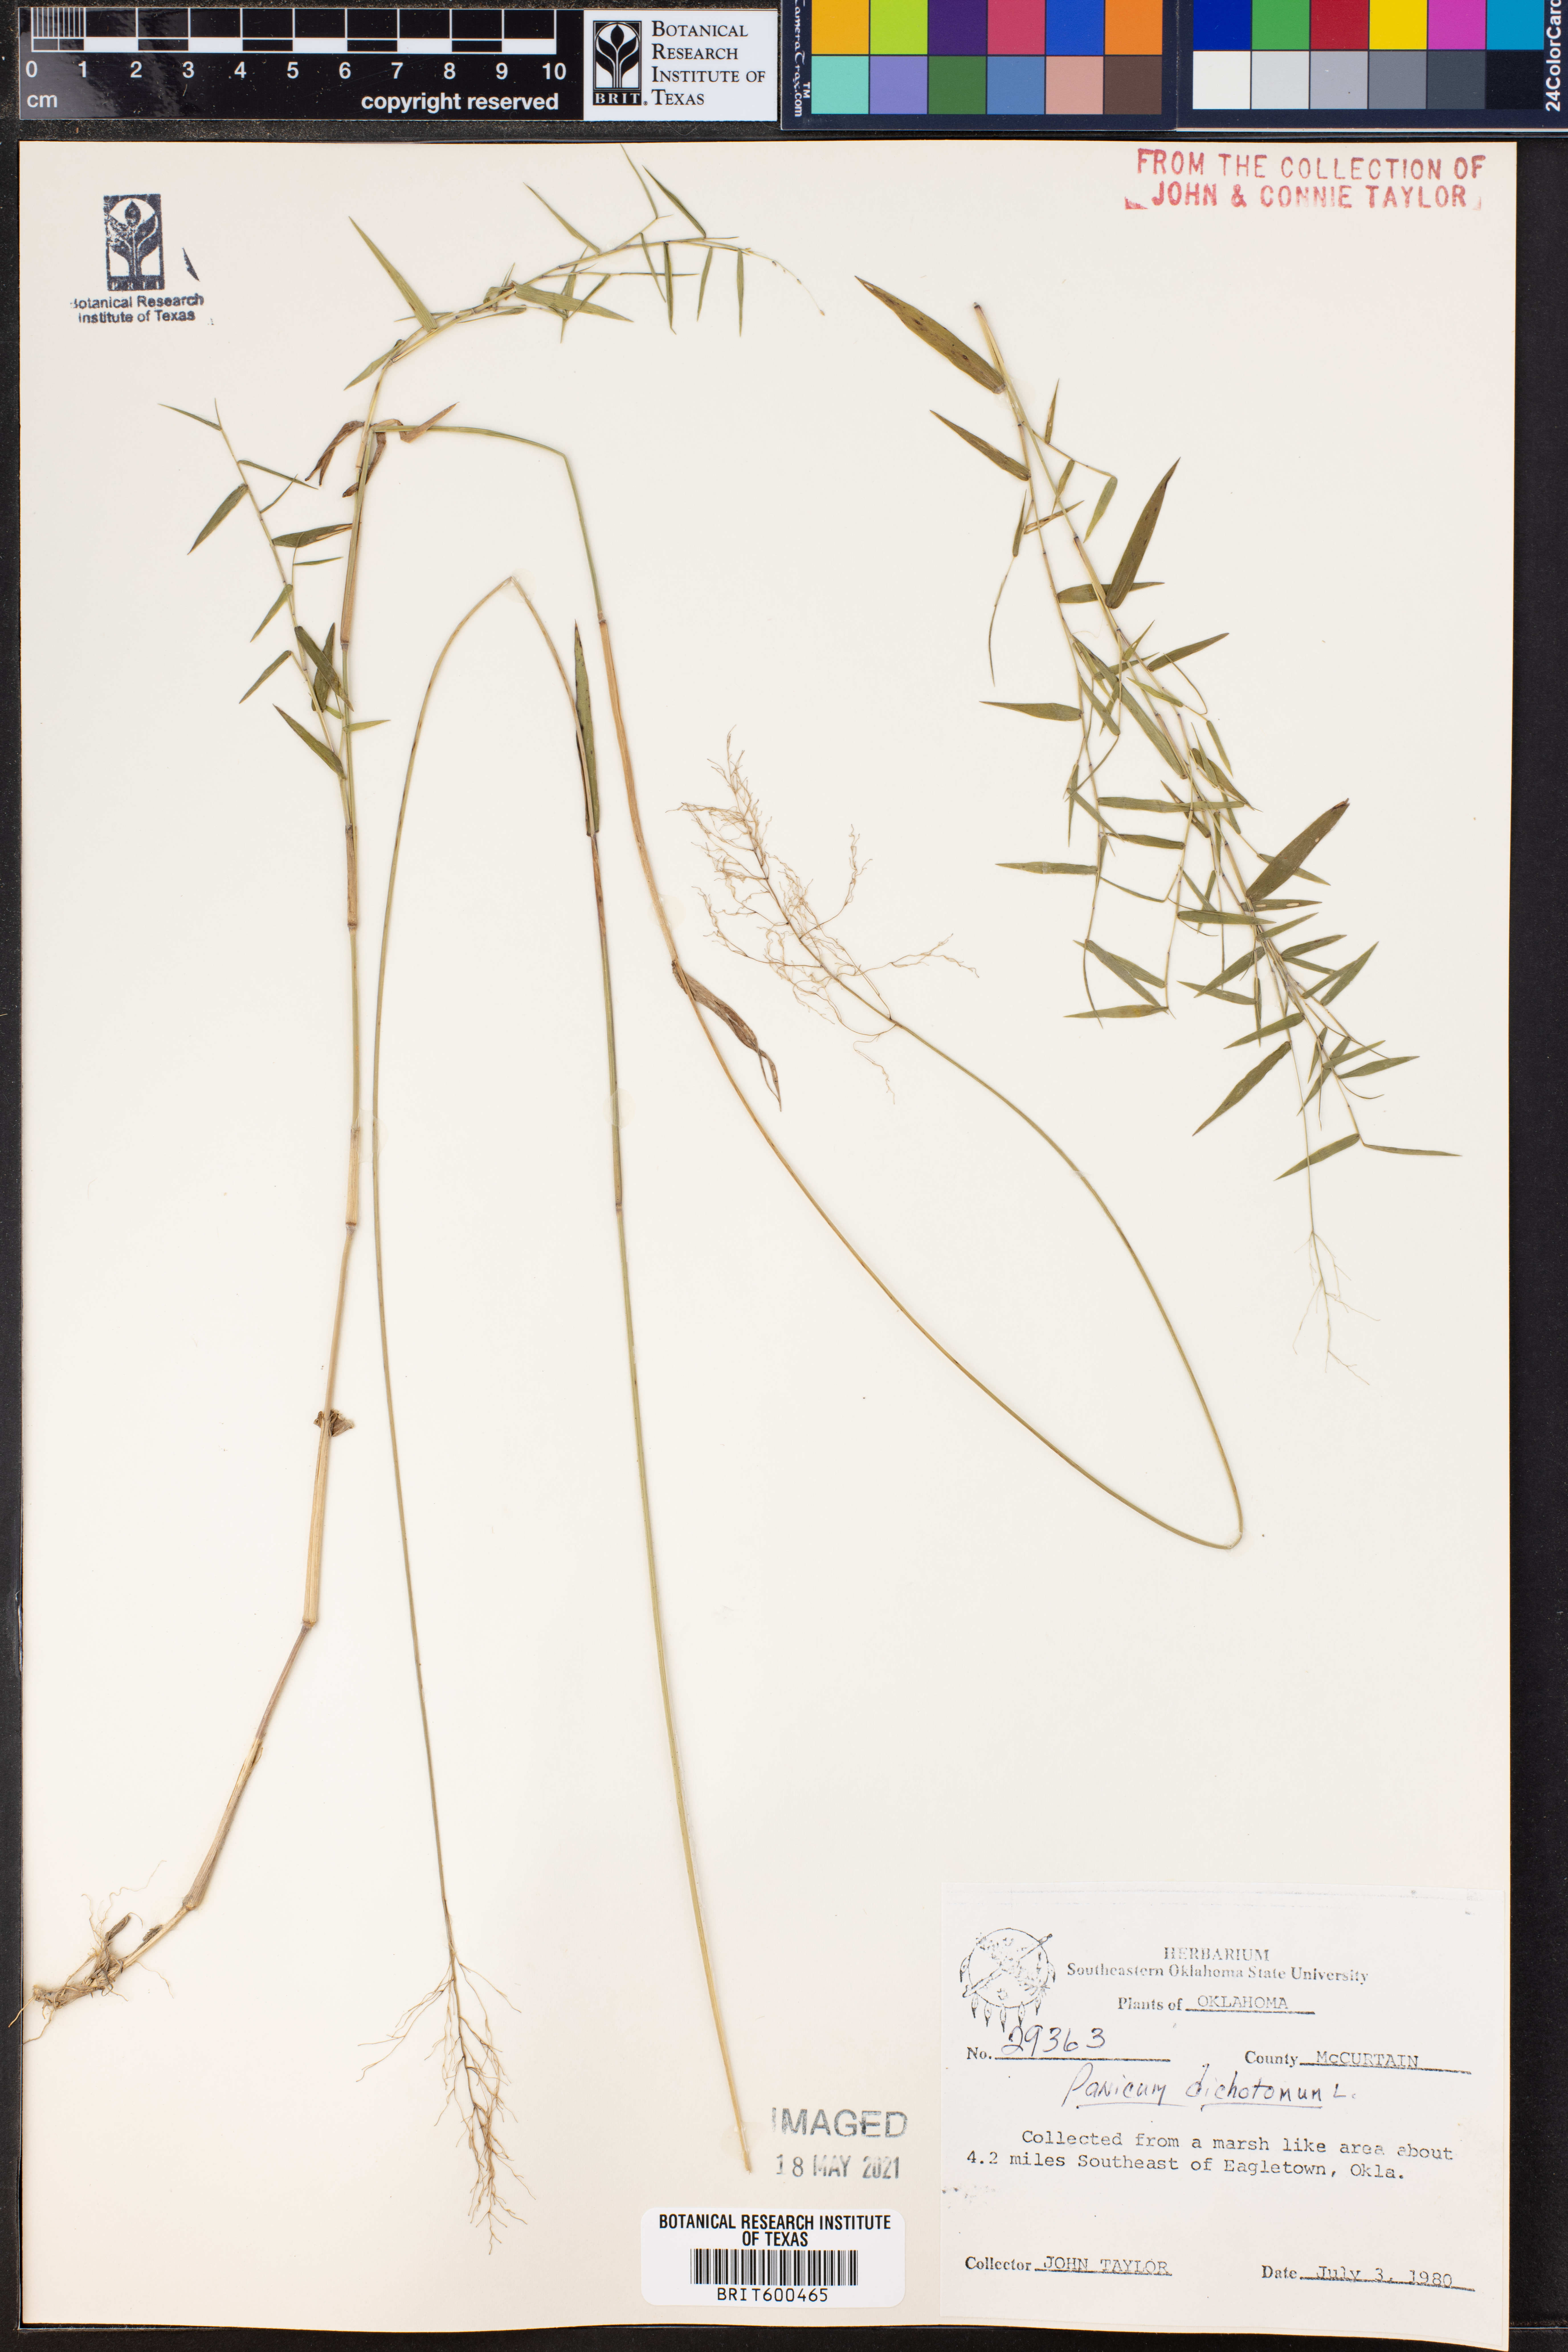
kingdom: Plantae
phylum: Tracheophyta
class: Liliopsida
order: Poales
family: Poaceae
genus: Dichanthelium
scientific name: Dichanthelium dichotomum
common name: Cypress panicgrass
